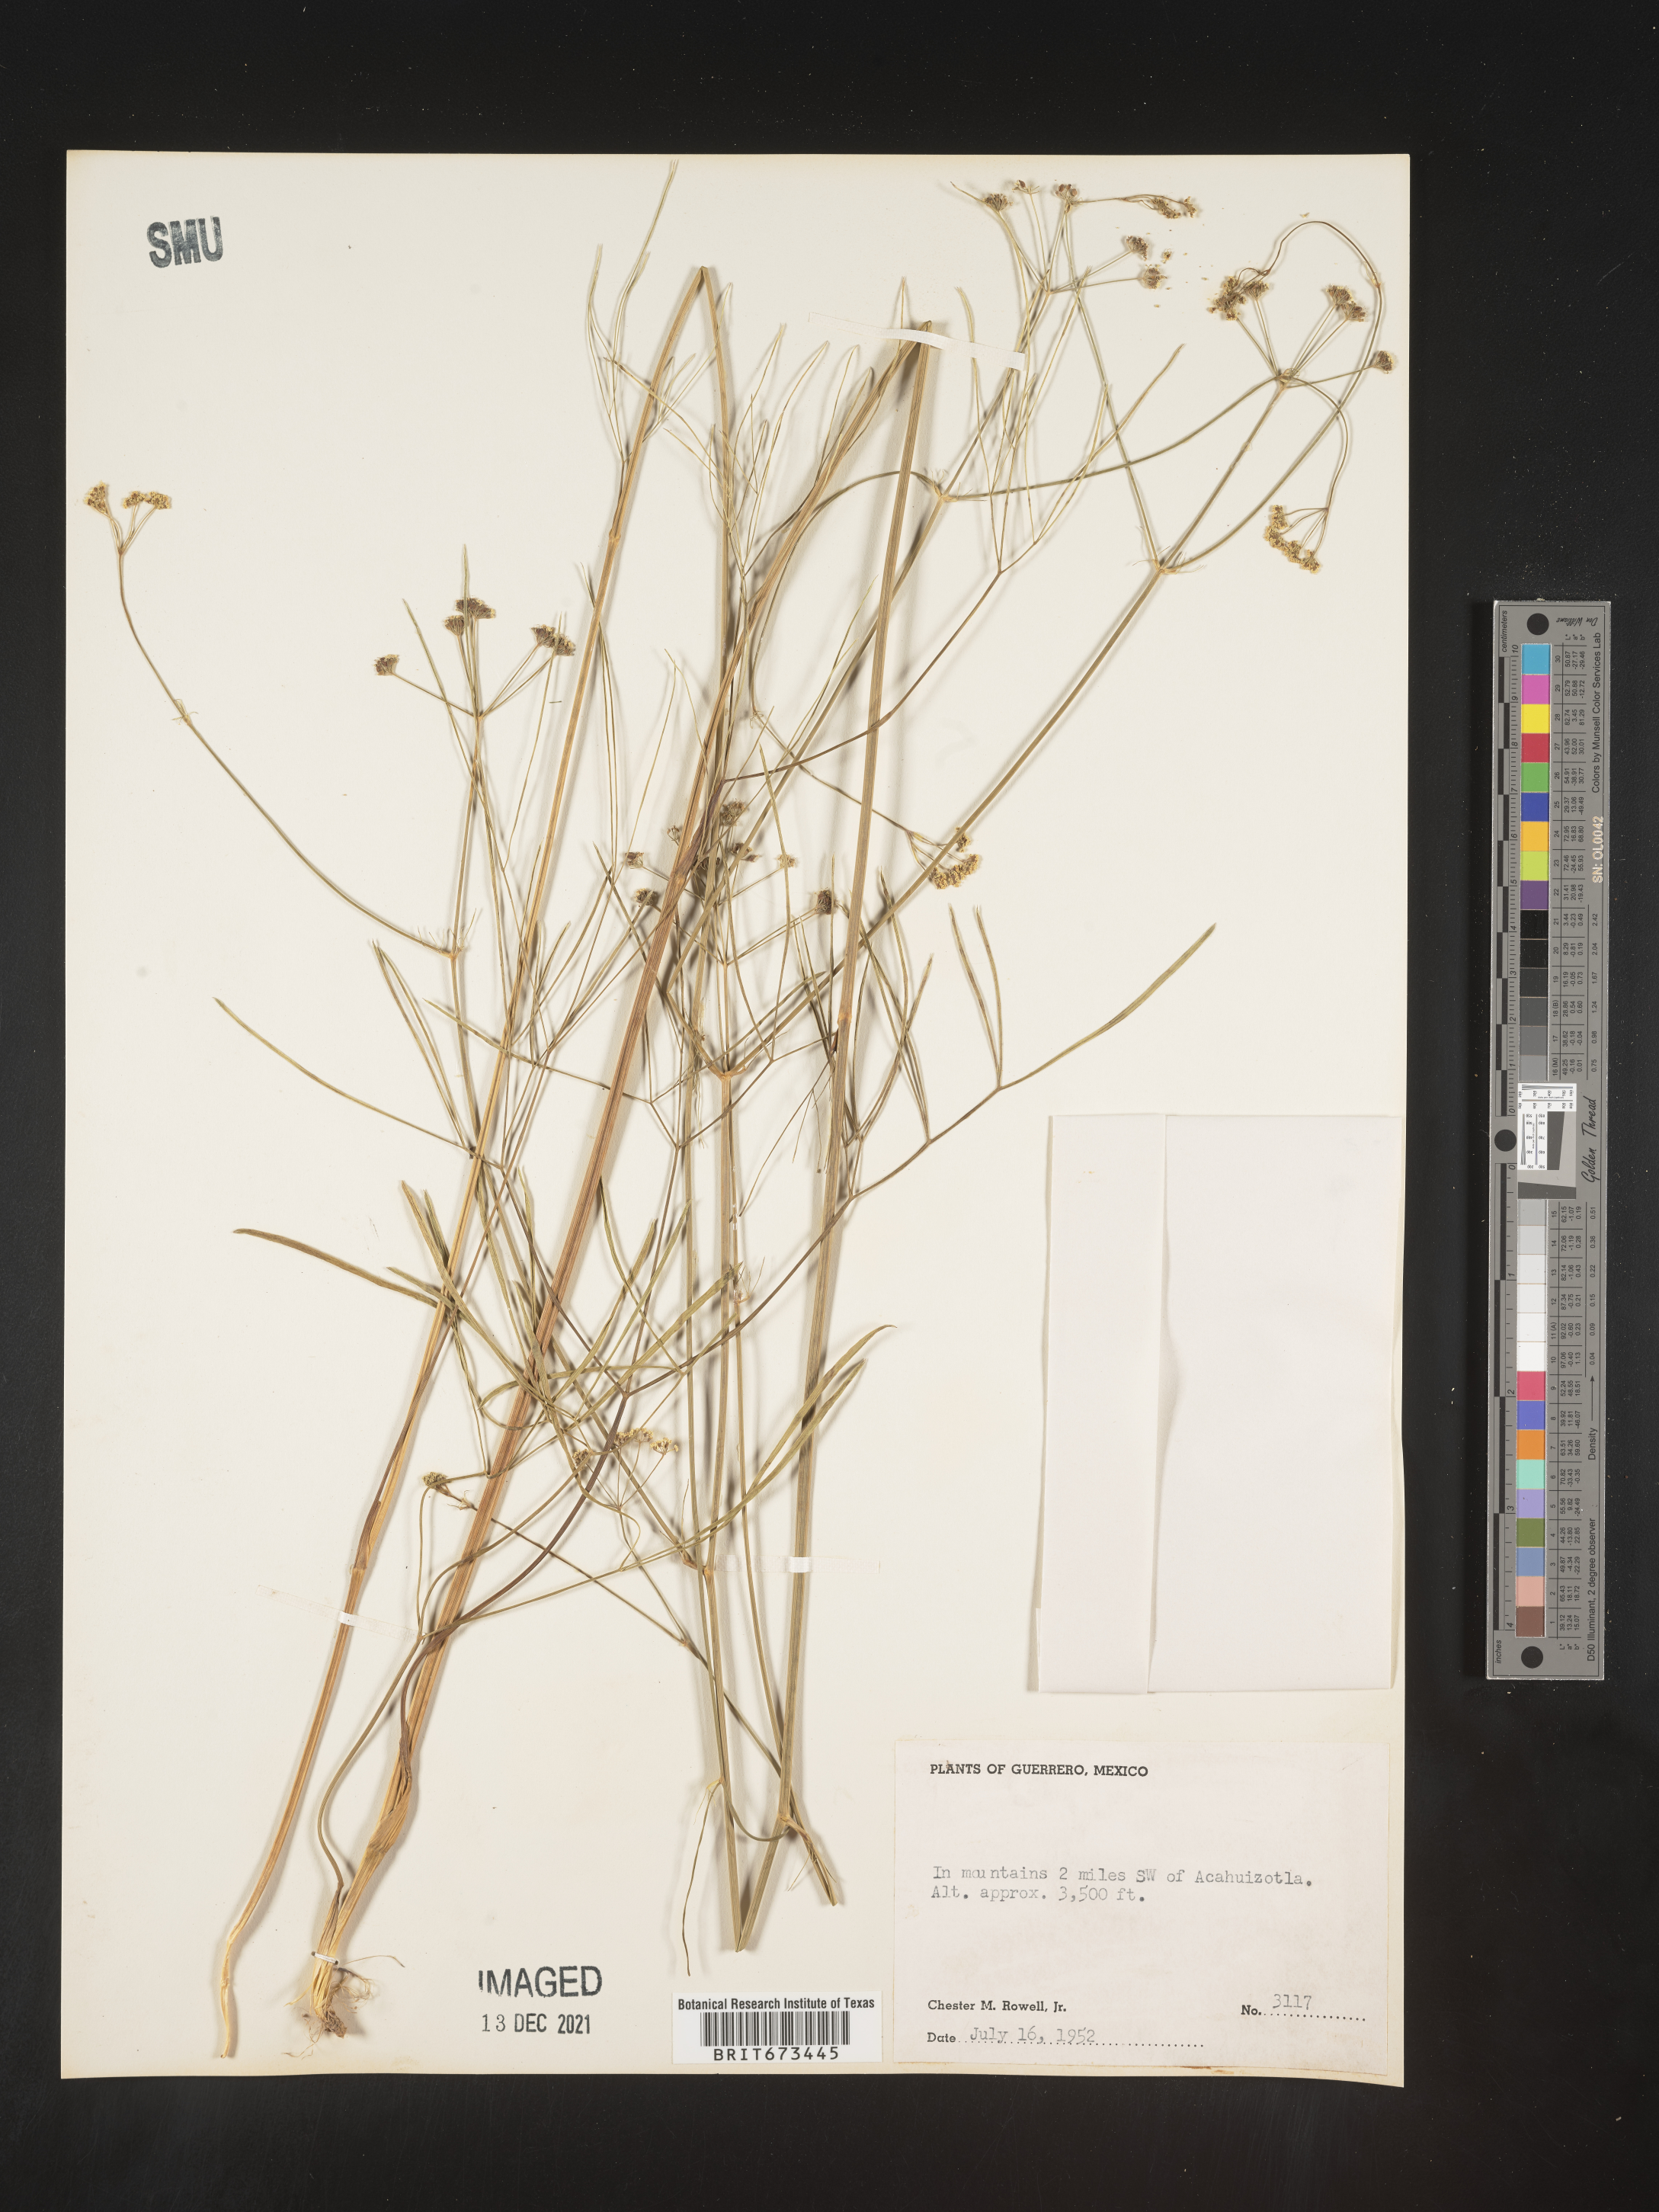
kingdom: Plantae
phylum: Tracheophyta
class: Magnoliopsida
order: Apiales
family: Apiaceae
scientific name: Apiaceae
